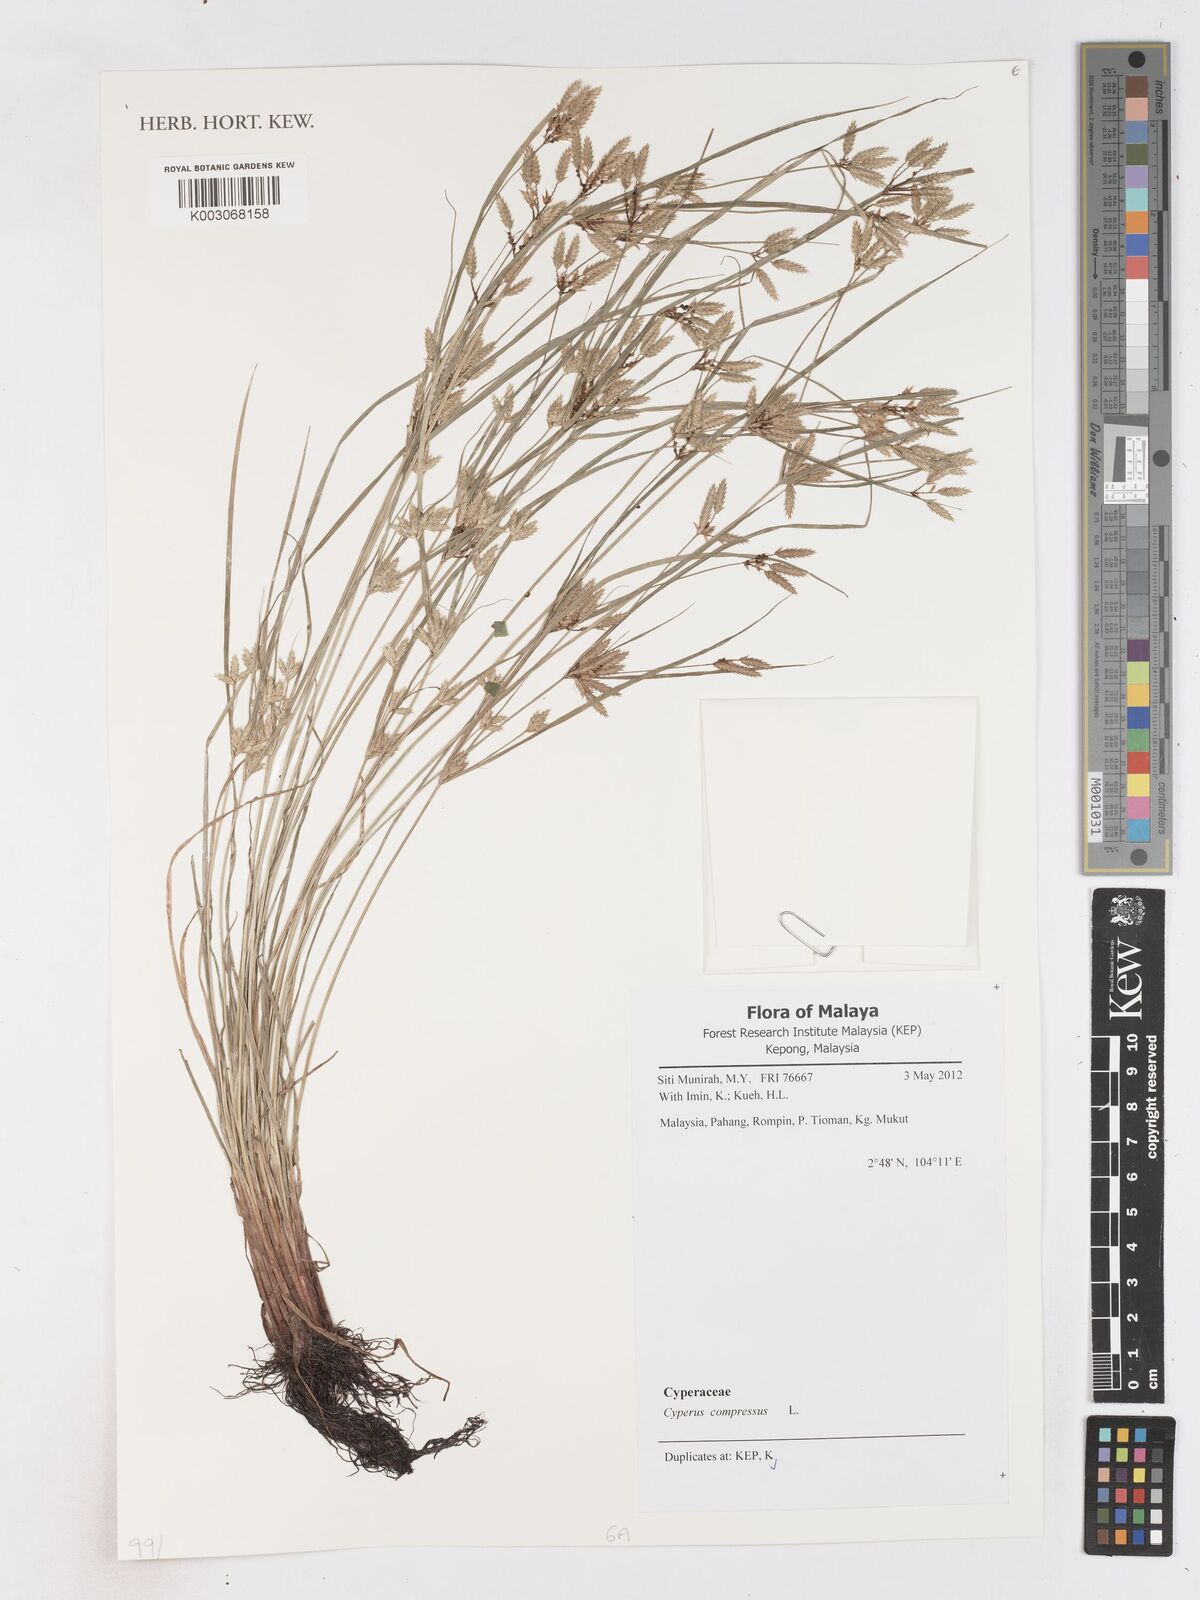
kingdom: Plantae
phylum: Tracheophyta
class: Liliopsida
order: Poales
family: Cyperaceae
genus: Cyperus
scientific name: Cyperus compressus
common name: Poorland flatsedge
